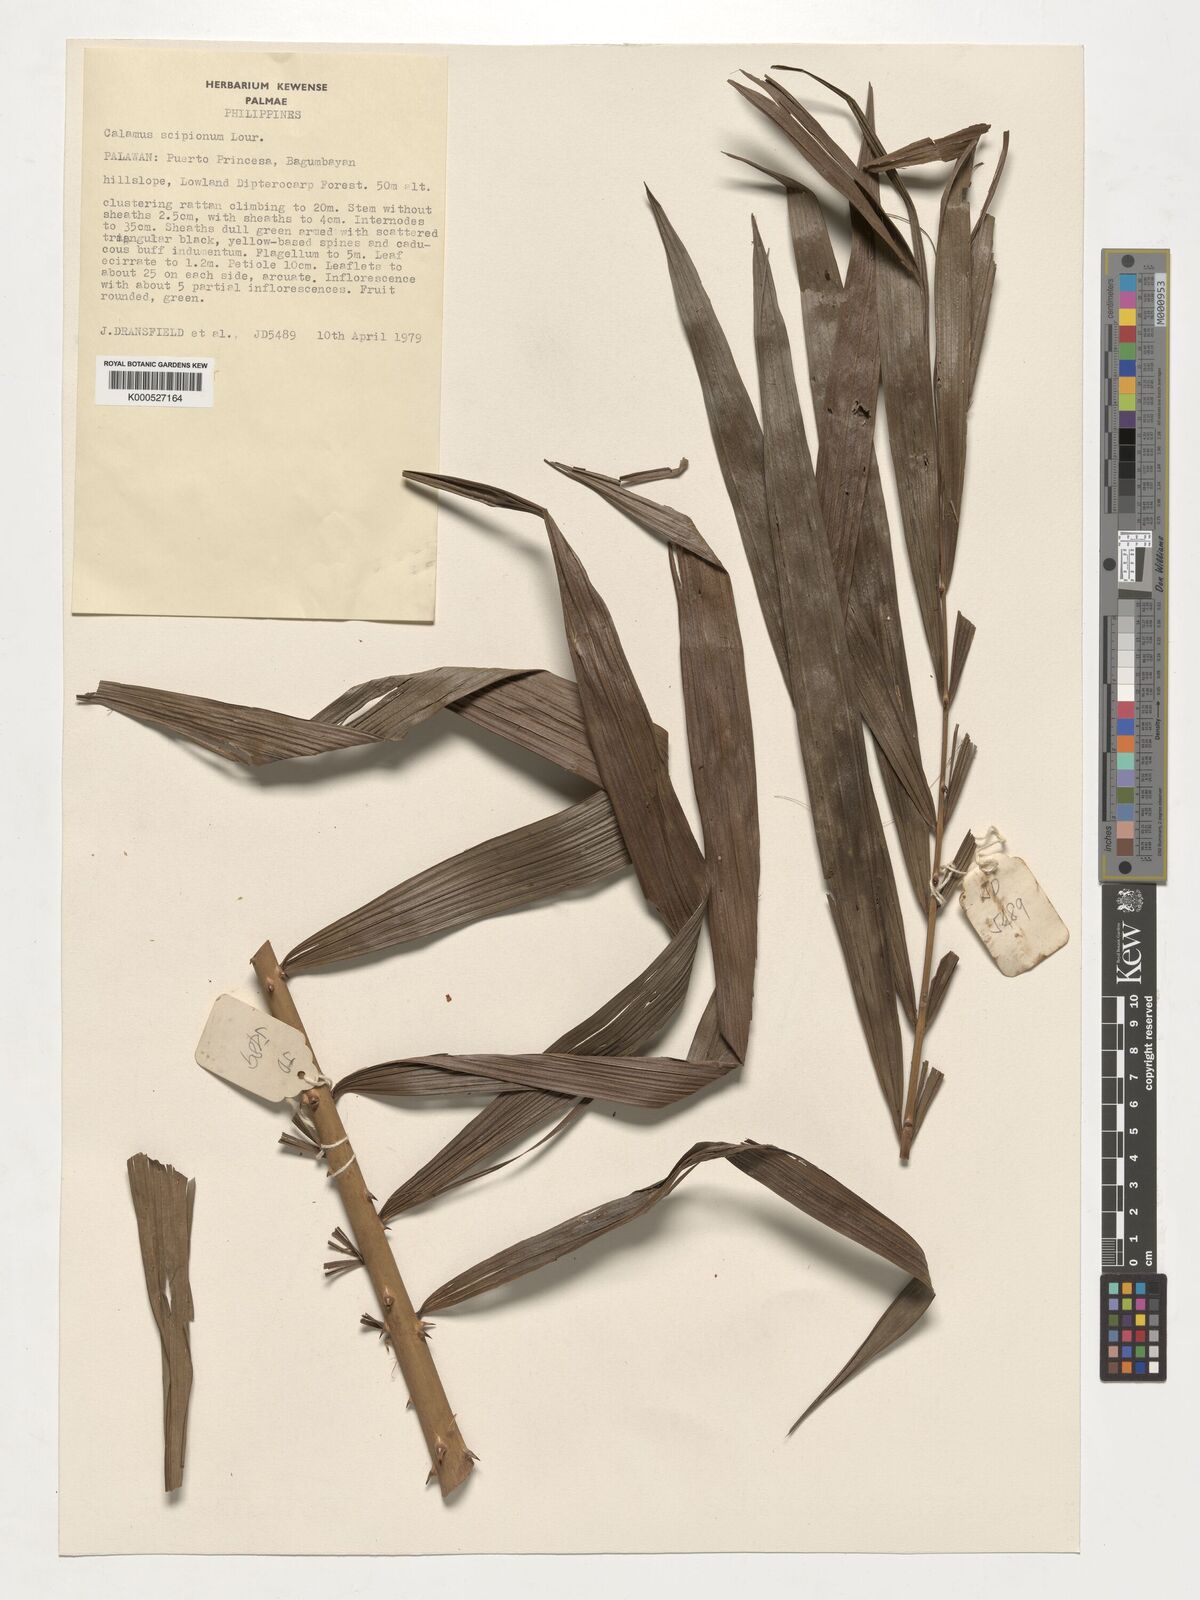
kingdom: Plantae
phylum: Tracheophyta
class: Liliopsida
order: Arecales
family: Arecaceae
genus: Calamus
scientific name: Calamus scipionum
